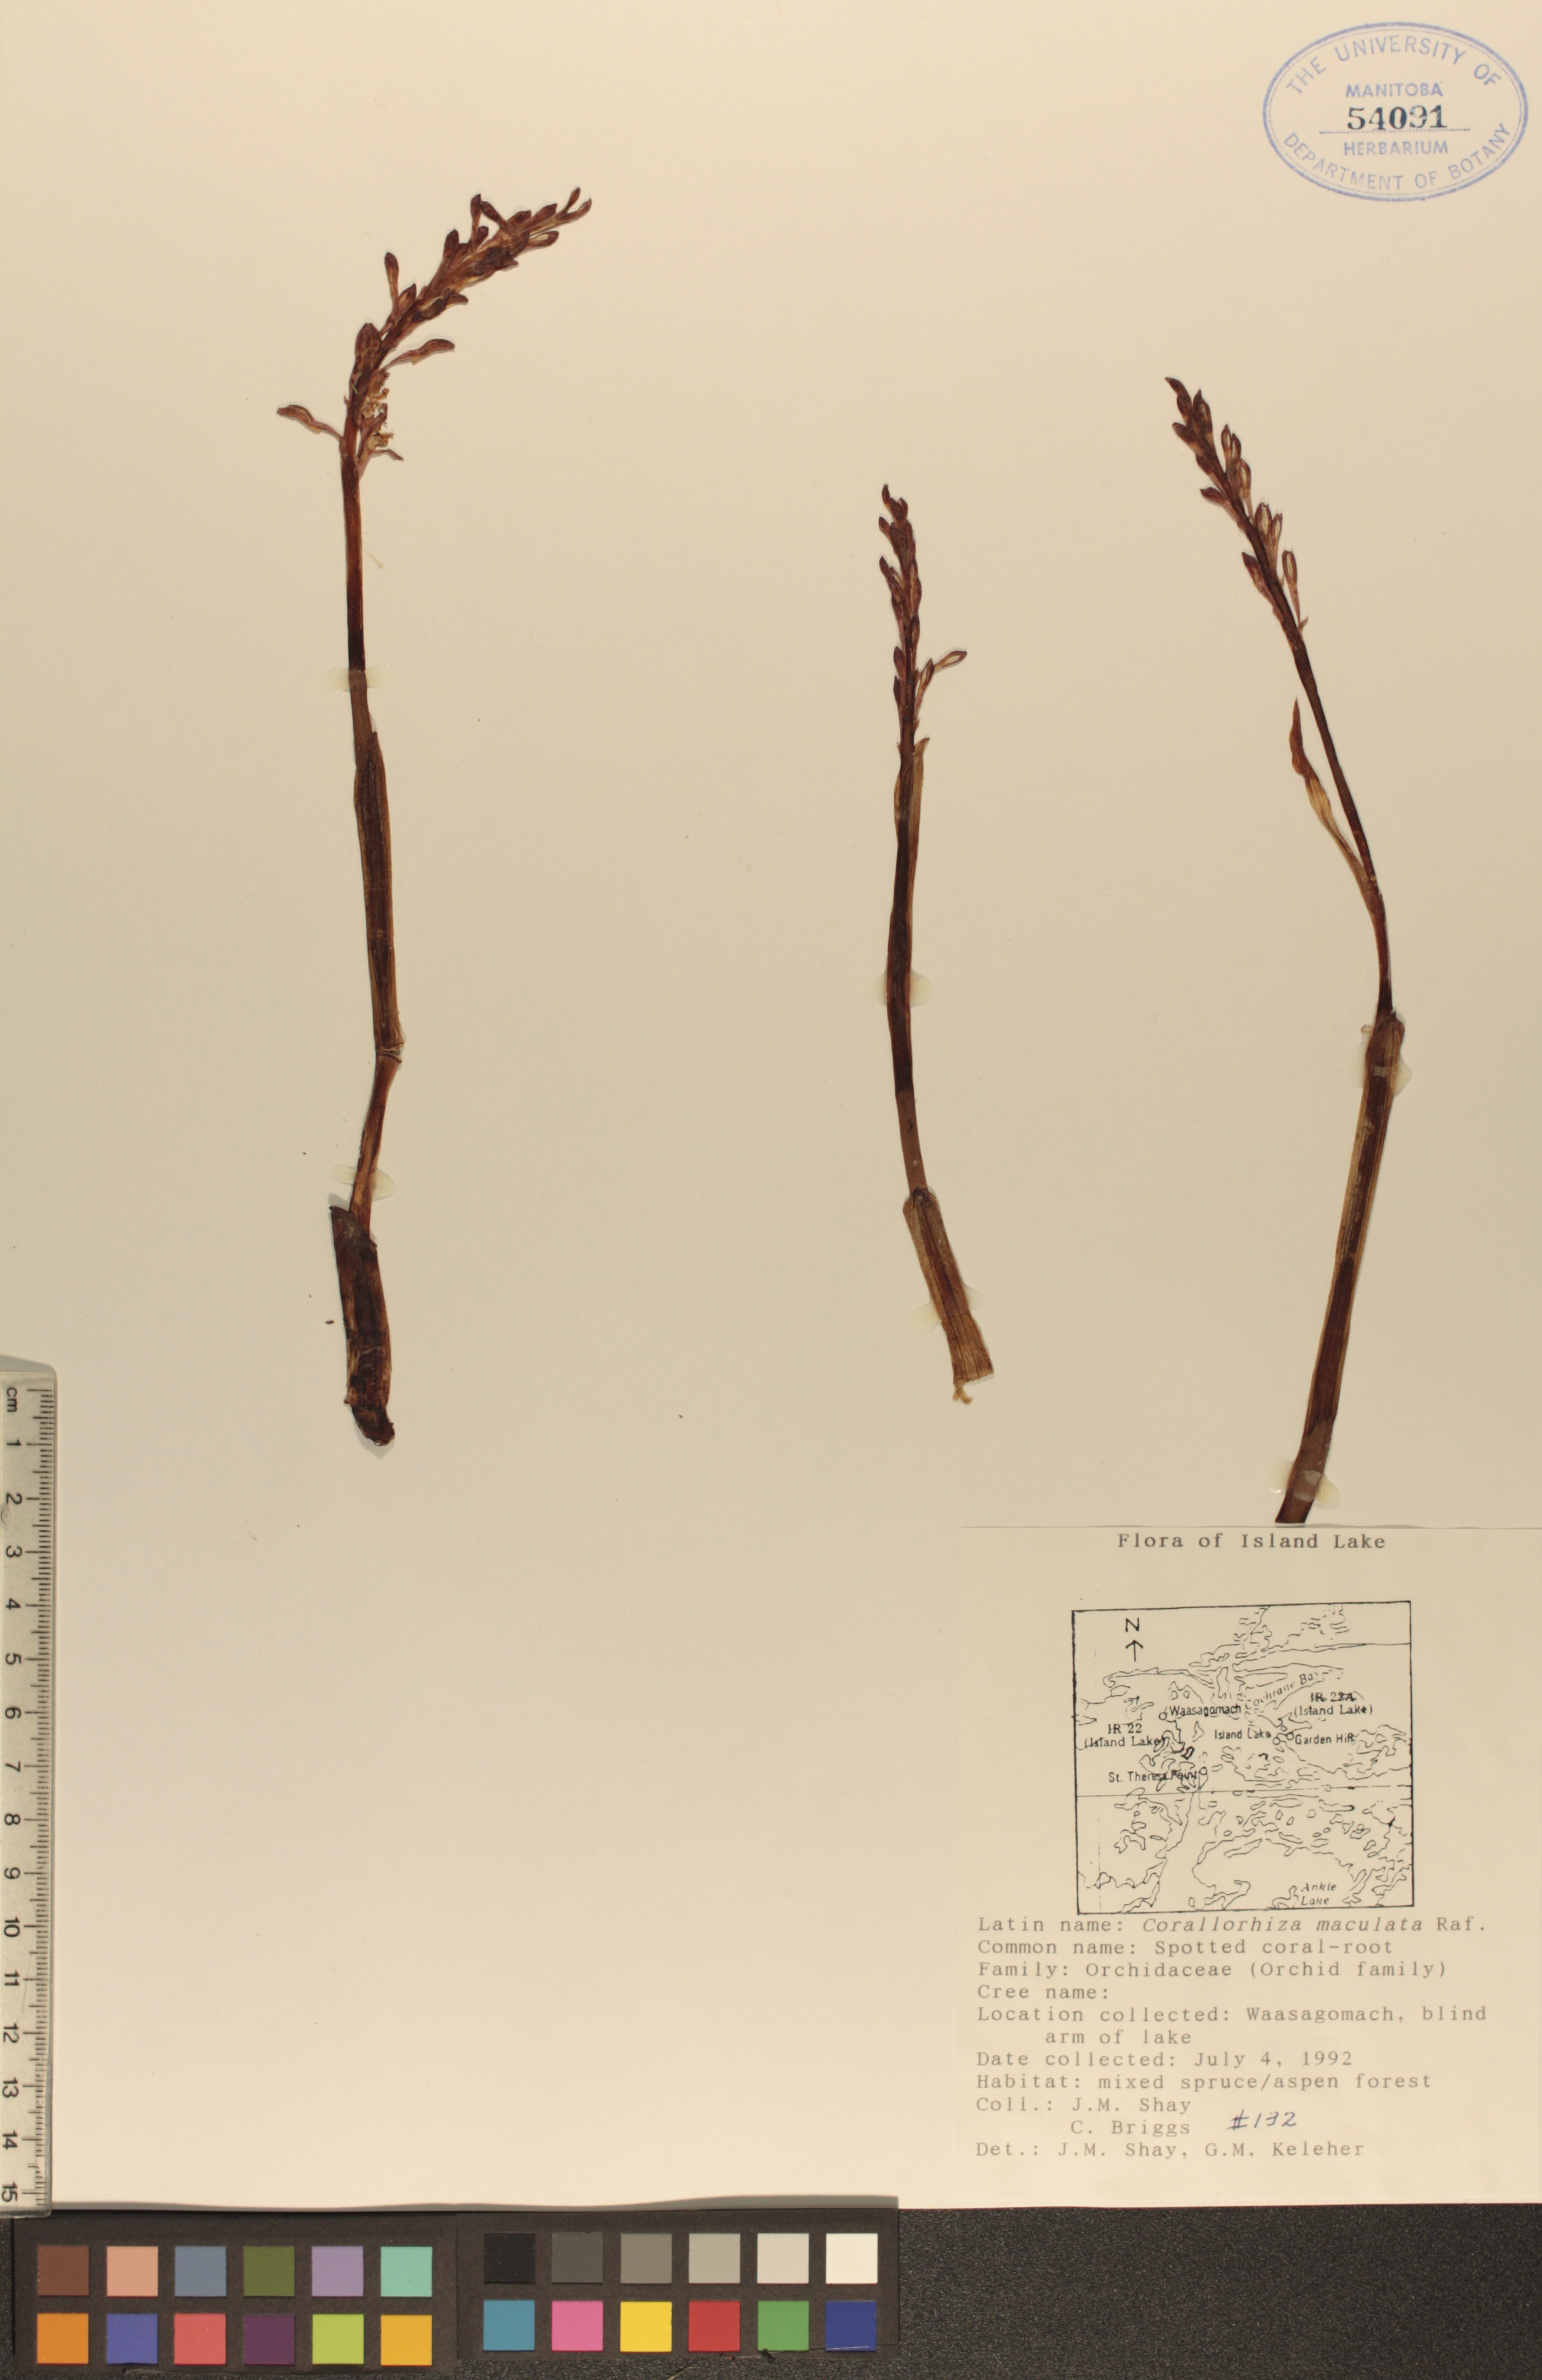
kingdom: Plantae
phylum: Tracheophyta
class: Liliopsida
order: Asparagales
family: Orchidaceae
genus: Corallorhiza
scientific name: Corallorhiza maculata
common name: Spotted coralroot
